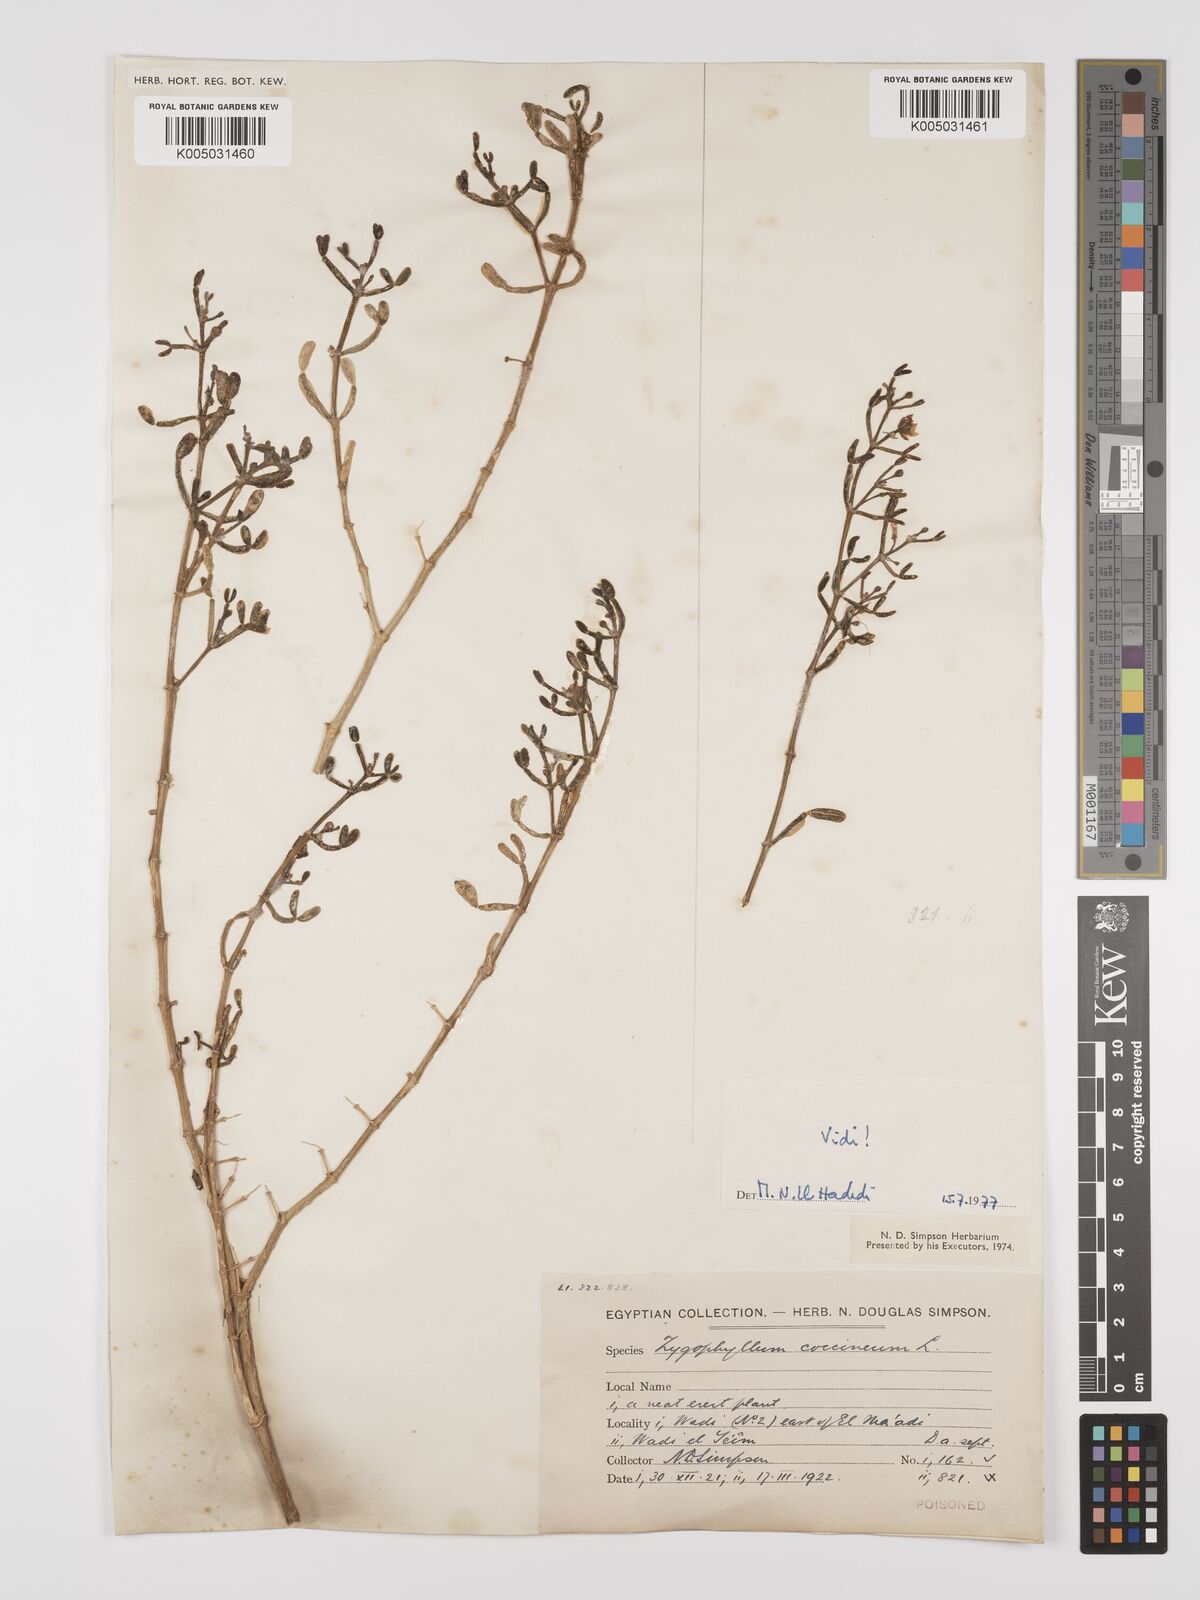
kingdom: Plantae
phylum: Tracheophyta
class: Magnoliopsida
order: Zygophyllales
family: Zygophyllaceae
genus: Zygophyllum
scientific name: Zygophyllum
